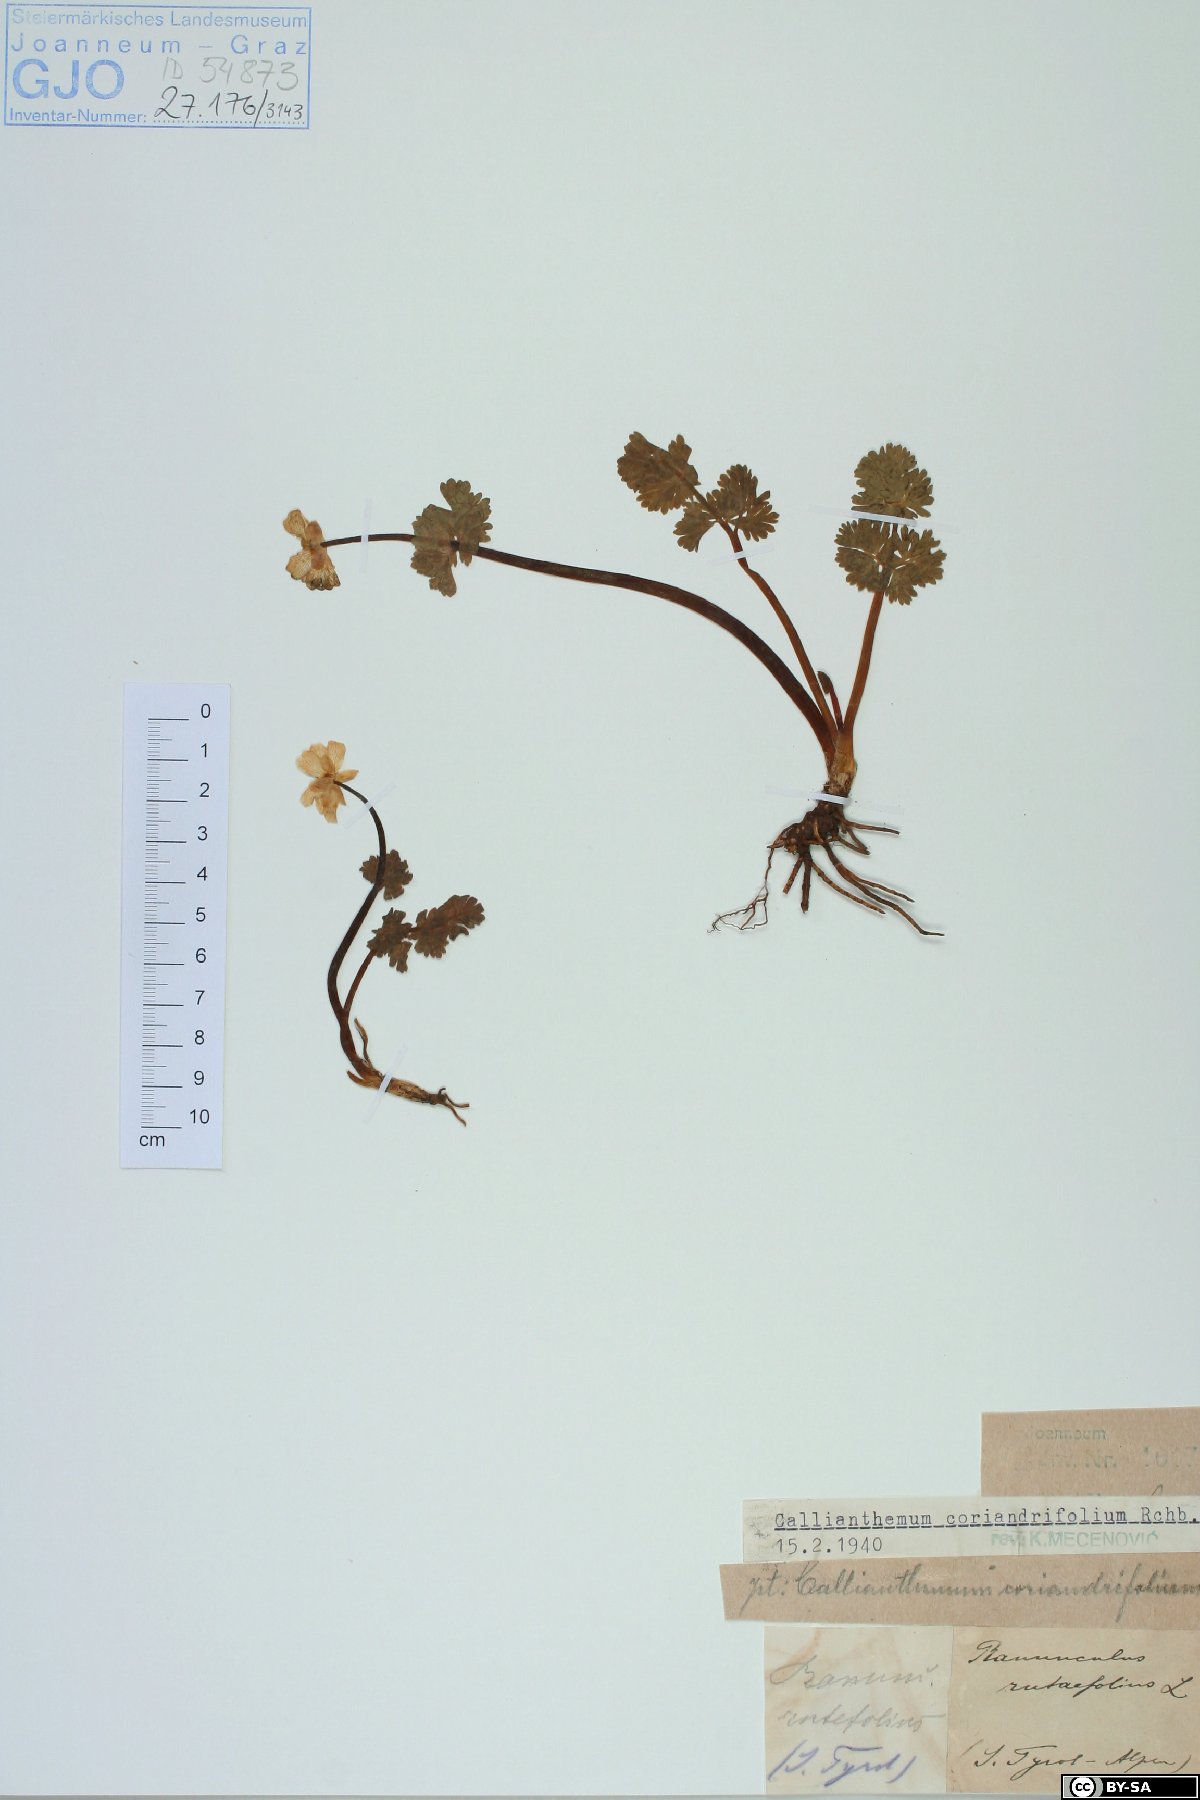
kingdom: Plantae
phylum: Tracheophyta
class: Magnoliopsida
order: Ranunculales
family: Ranunculaceae
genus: Callianthemum
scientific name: Callianthemum coriandrifolium
